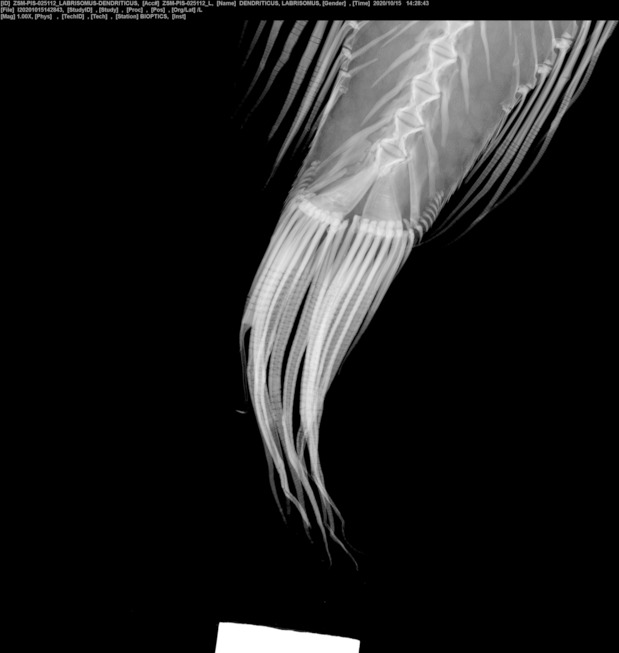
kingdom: Animalia
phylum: Chordata
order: Perciformes
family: Labrisomidae
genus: Gobioclinus
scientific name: Gobioclinus dendriticus
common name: Bravo clinid
